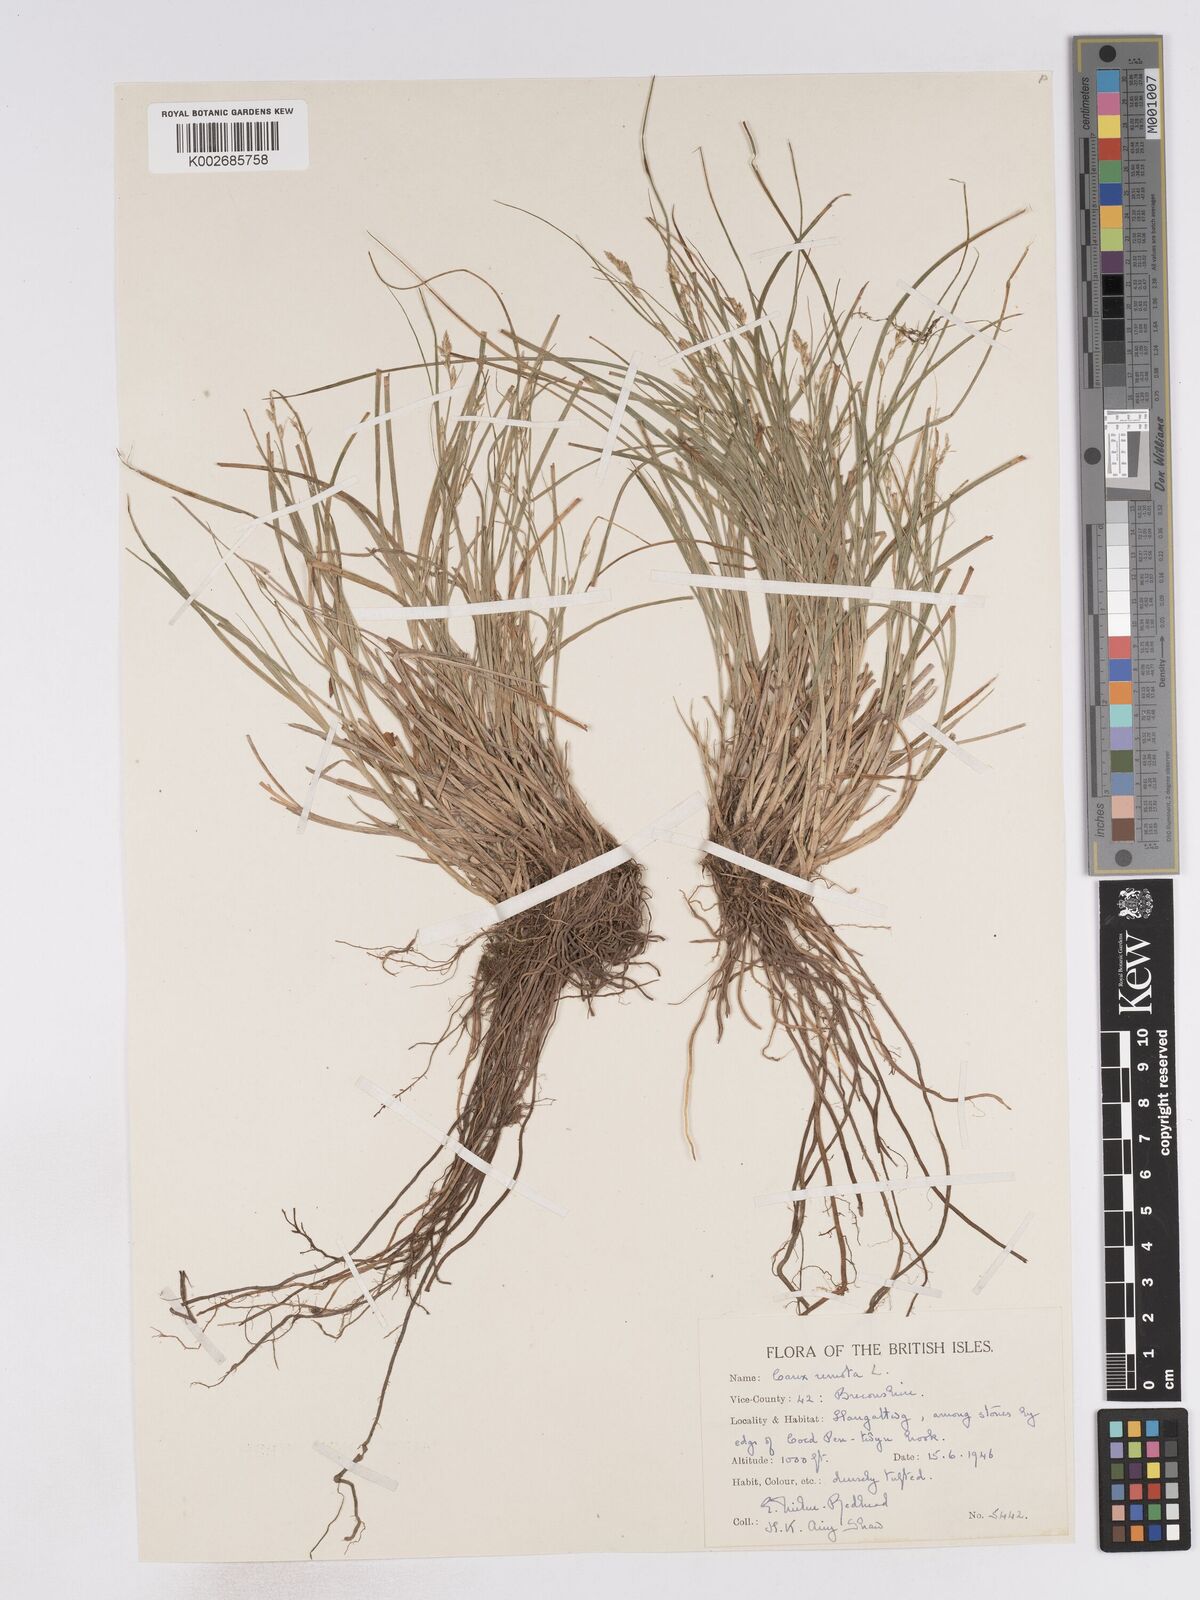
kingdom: Plantae
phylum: Tracheophyta
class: Liliopsida
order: Poales
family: Cyperaceae
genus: Carex
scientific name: Carex remota
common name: Remote sedge
